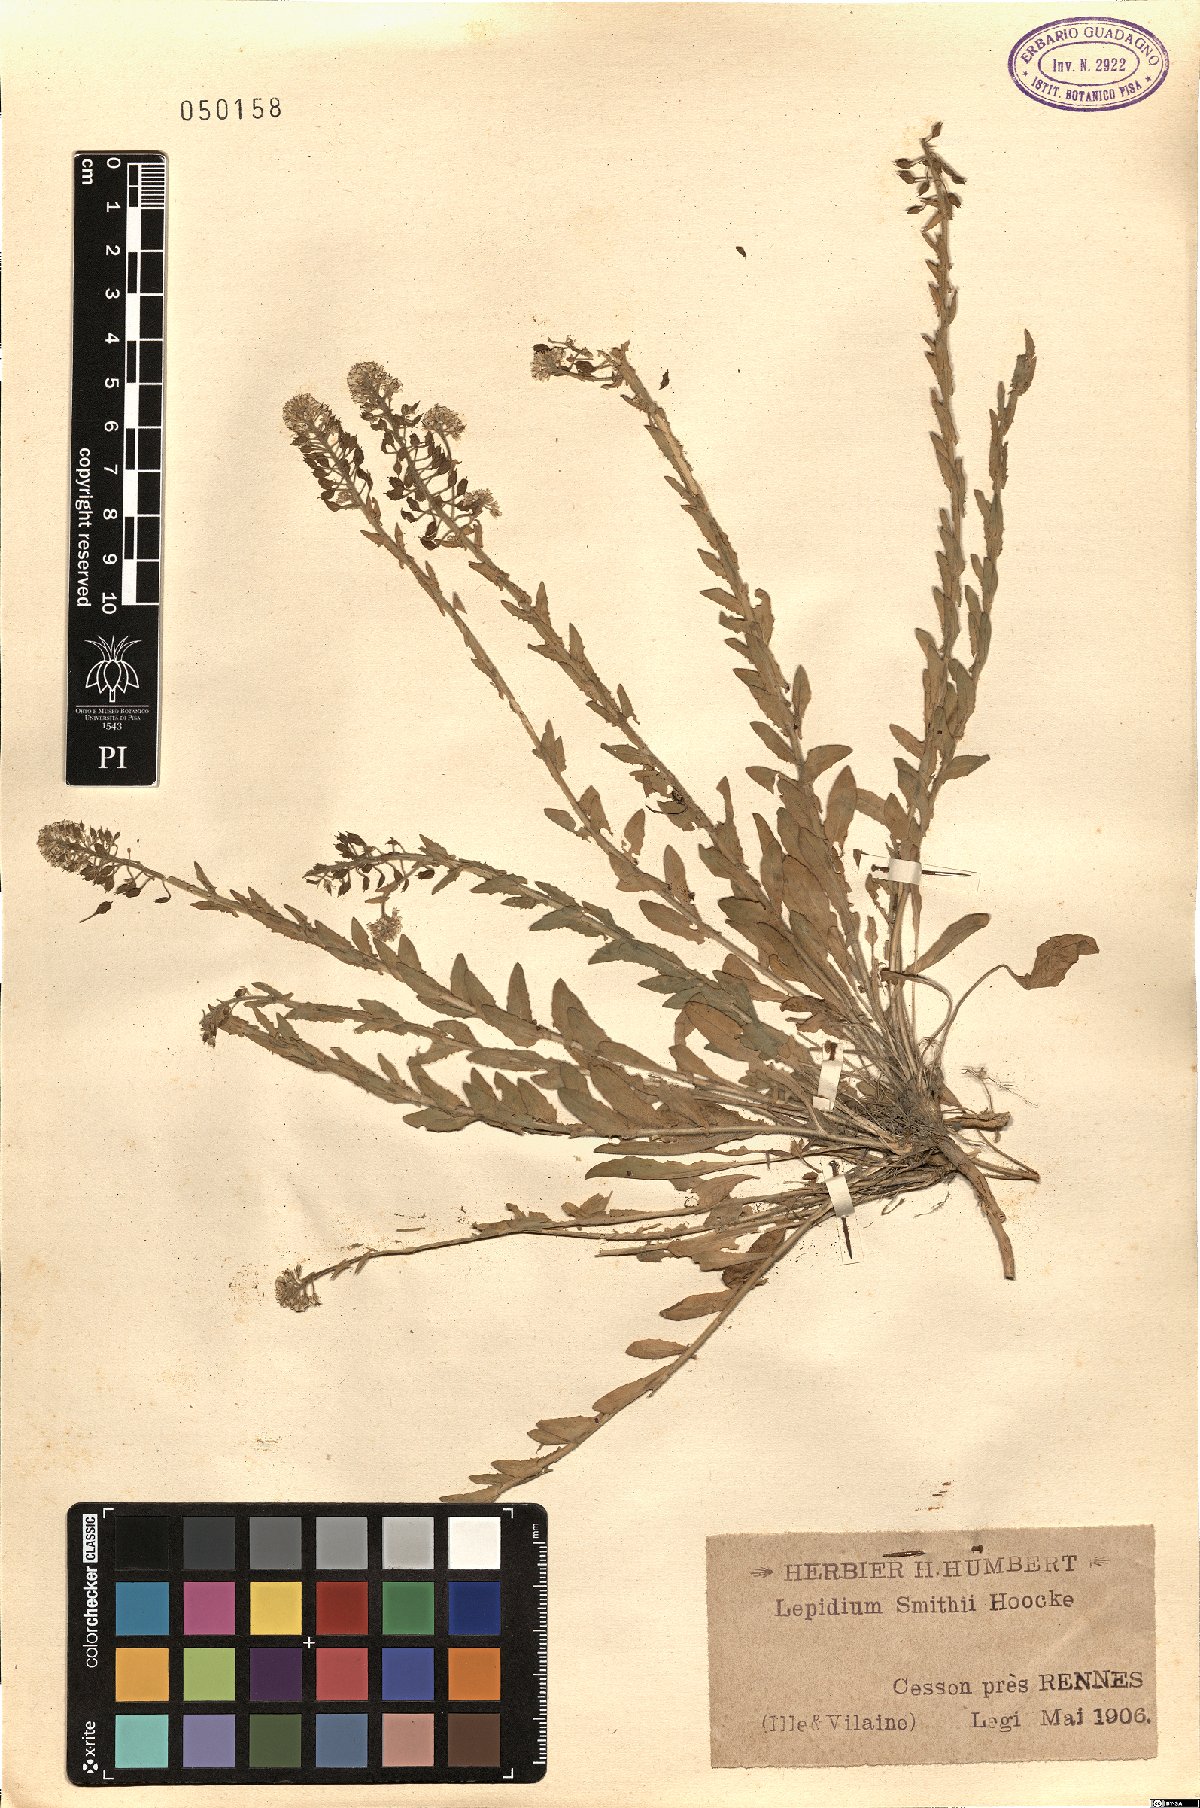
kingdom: Plantae
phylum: Tracheophyta
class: Magnoliopsida
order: Brassicales
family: Brassicaceae
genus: Lepidium
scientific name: Lepidium heterophyllum
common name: Smith's pepperwort
